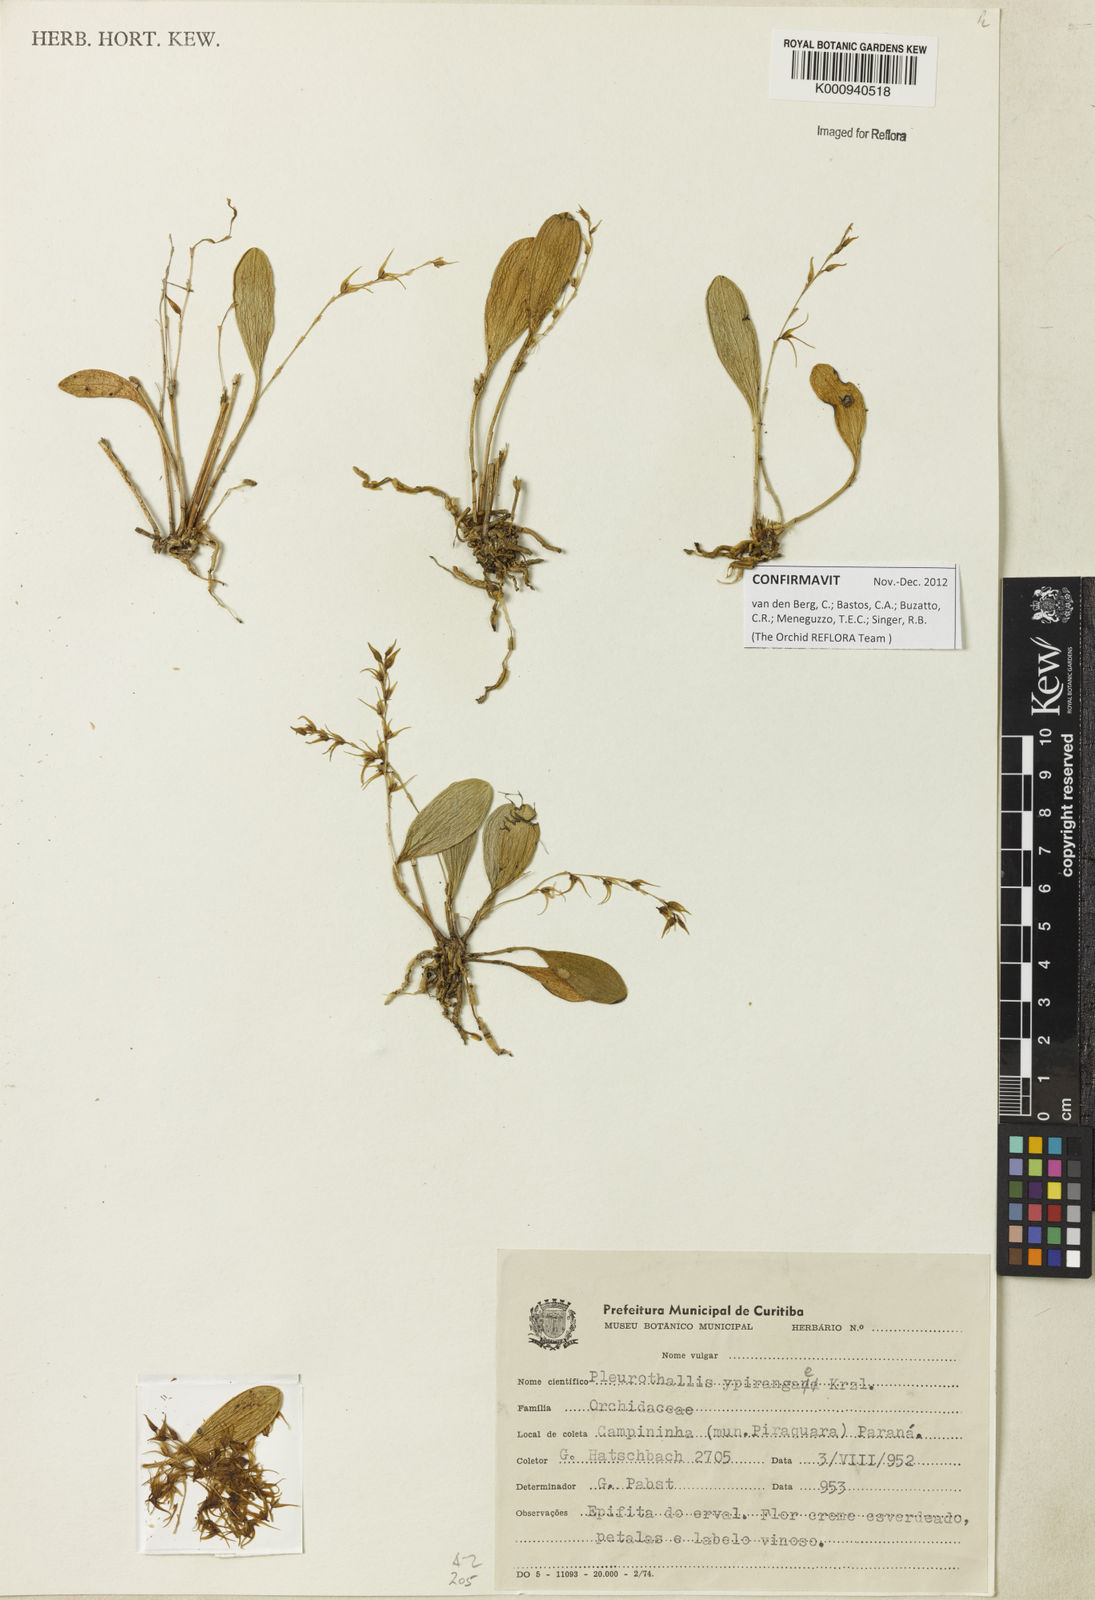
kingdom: Plantae
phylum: Tracheophyta
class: Liliopsida
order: Asparagales
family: Orchidaceae
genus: Anathallis
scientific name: Anathallis ypirangae
